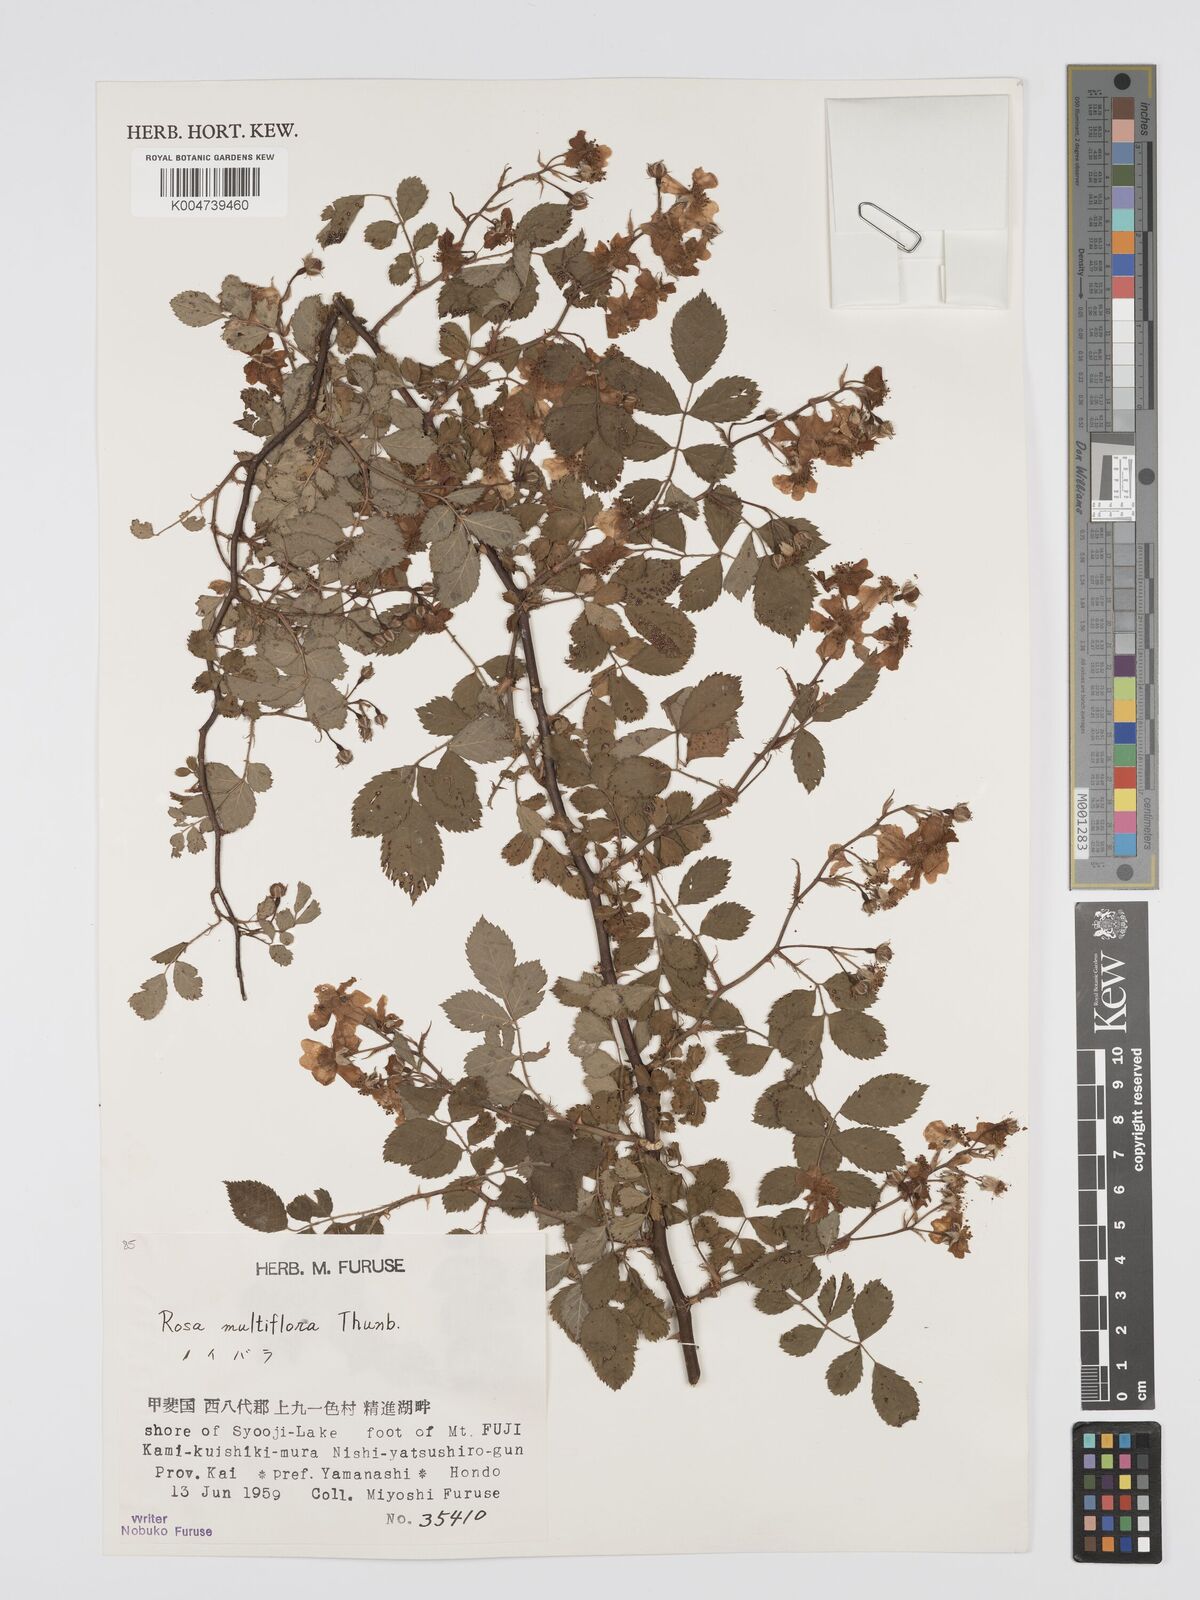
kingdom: Plantae
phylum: Tracheophyta
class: Magnoliopsida
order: Rosales
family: Rosaceae
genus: Rosa
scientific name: Rosa
